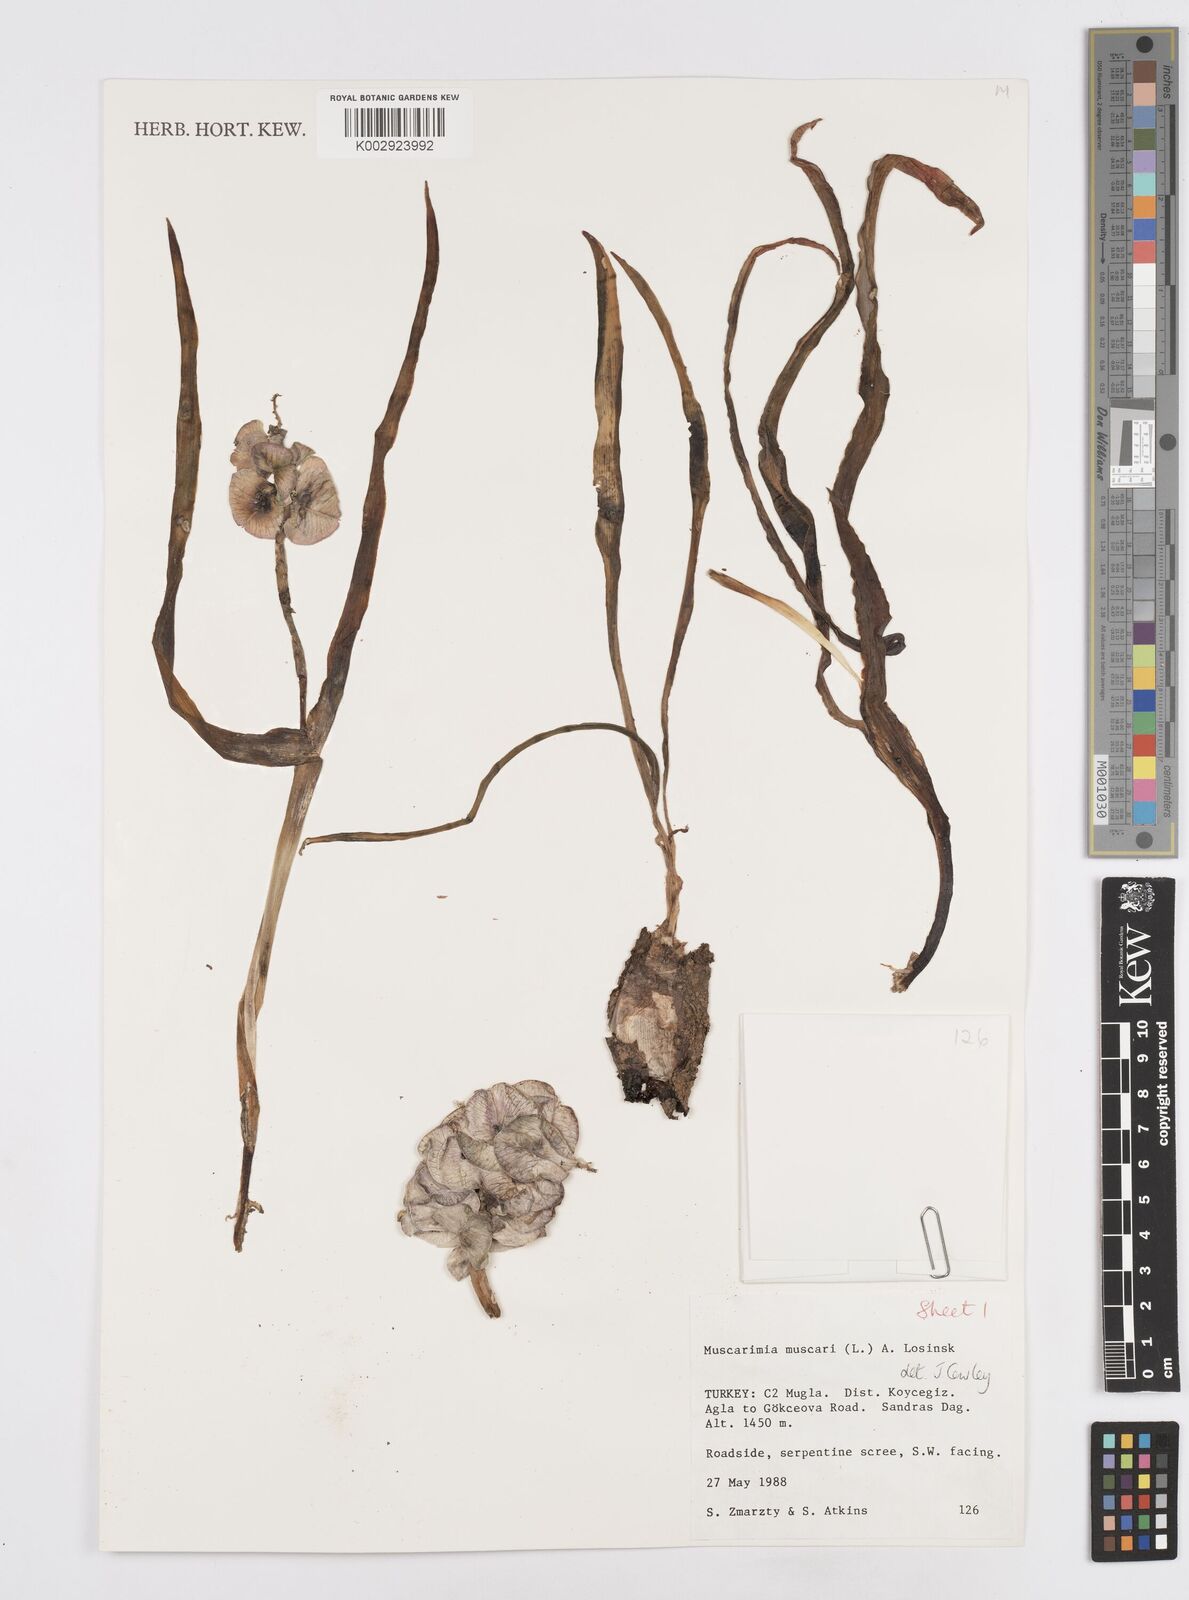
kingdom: Plantae
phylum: Tracheophyta
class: Liliopsida
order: Asparagales
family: Asparagaceae
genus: Muscari
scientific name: Muscari
